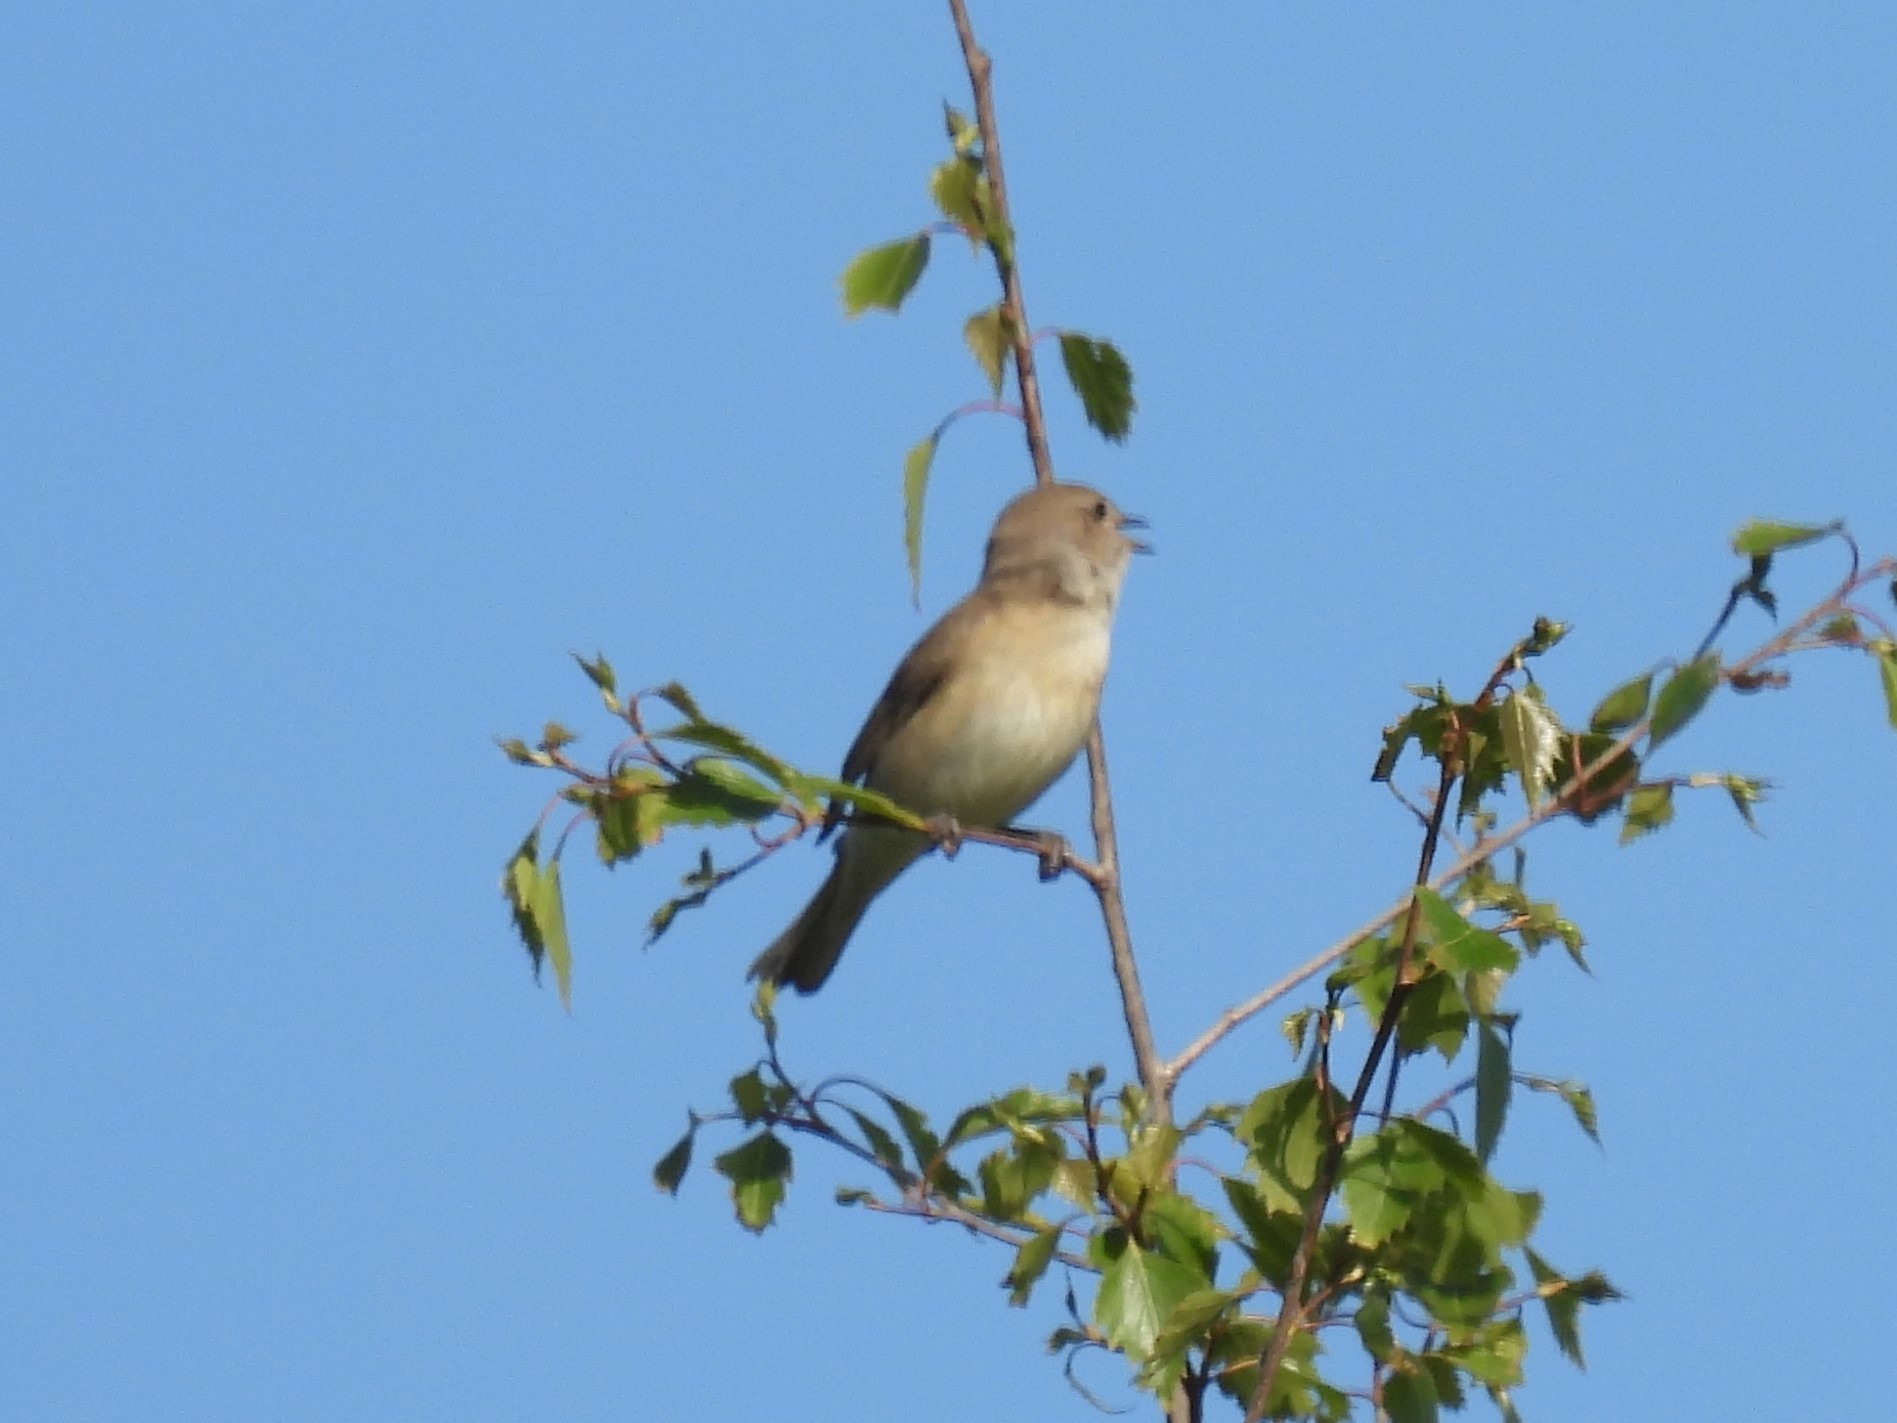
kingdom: Animalia
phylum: Chordata
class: Aves
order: Passeriformes
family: Sylviidae
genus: Sylvia
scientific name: Sylvia borin
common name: Havesanger
